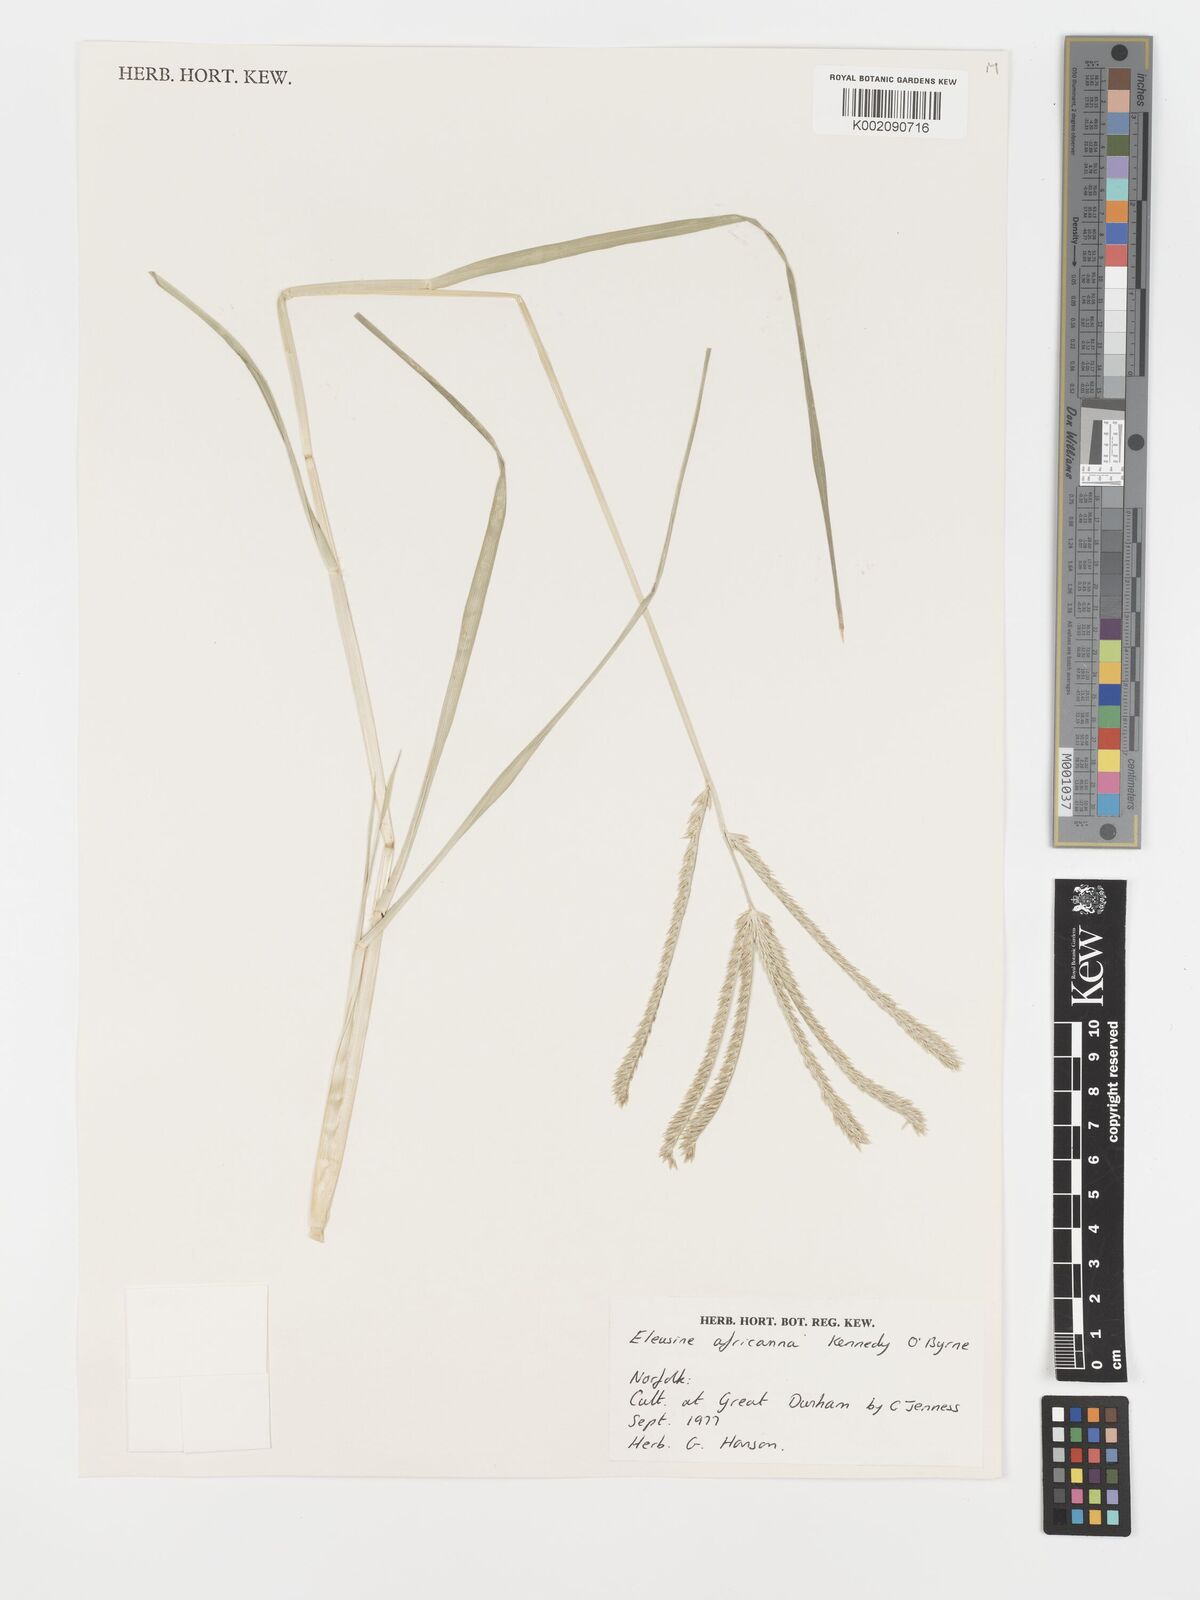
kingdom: Plantae
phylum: Tracheophyta
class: Liliopsida
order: Poales
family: Poaceae
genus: Eleusine
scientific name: Eleusine africana
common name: Wild african finger millet
